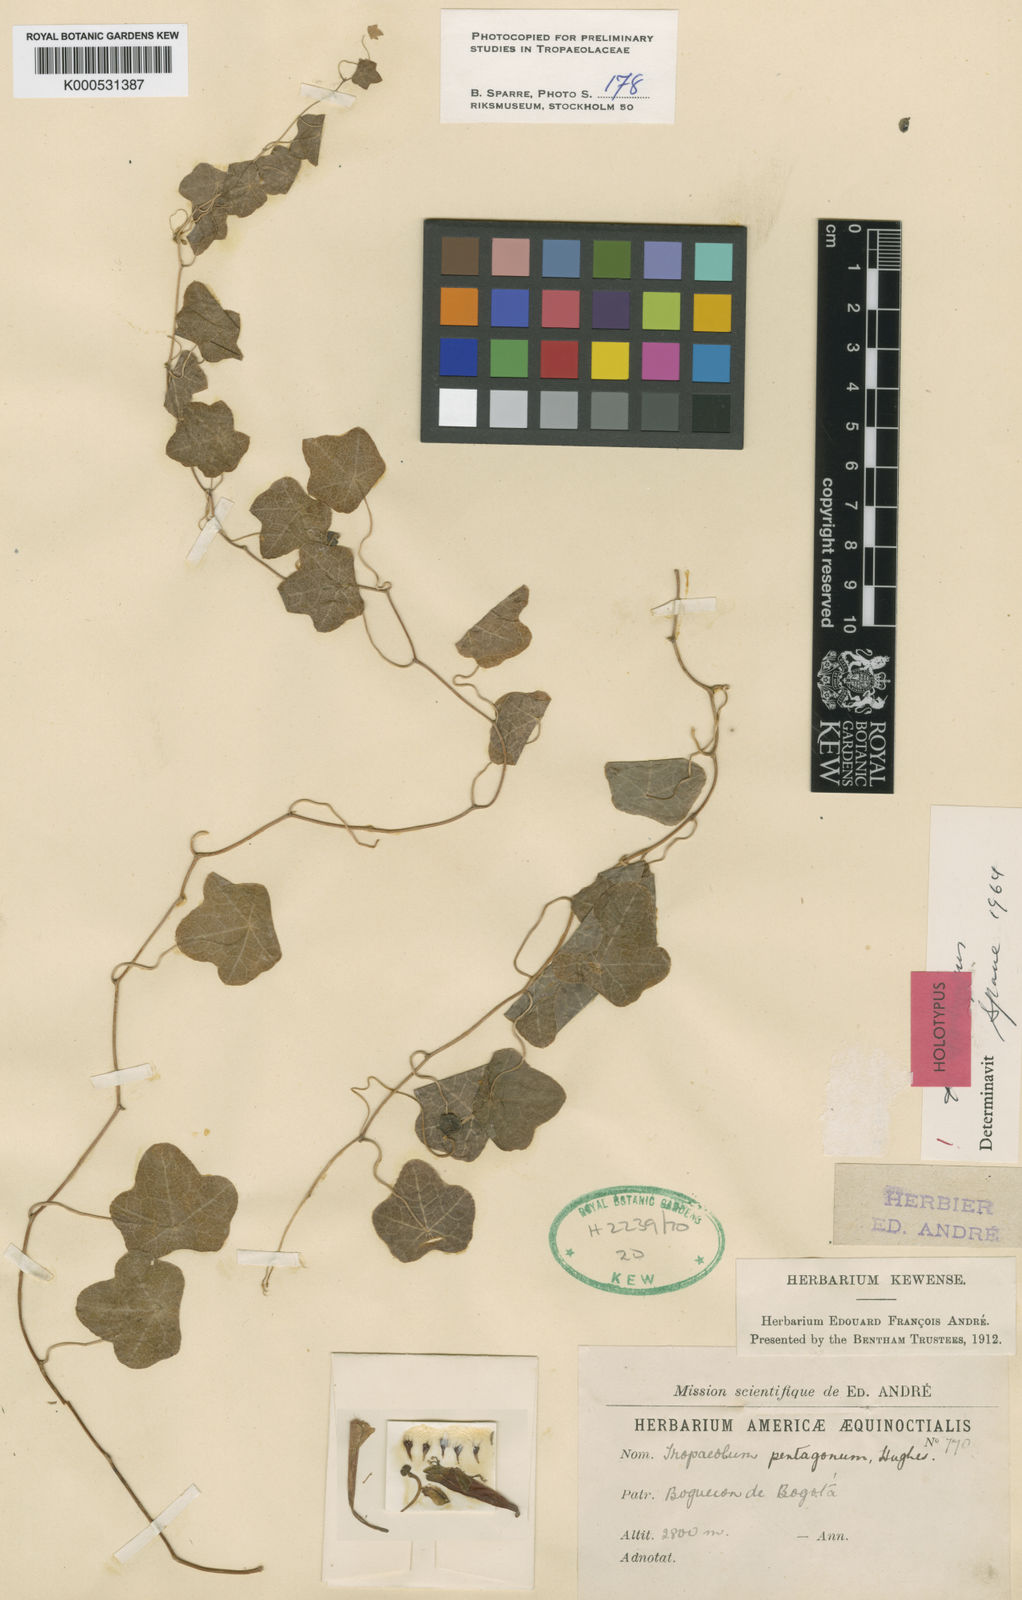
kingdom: Plantae
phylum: Tracheophyta
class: Magnoliopsida
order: Brassicales
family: Tropaeolaceae
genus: Tropaeolum
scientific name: Tropaeolum pentagonum
